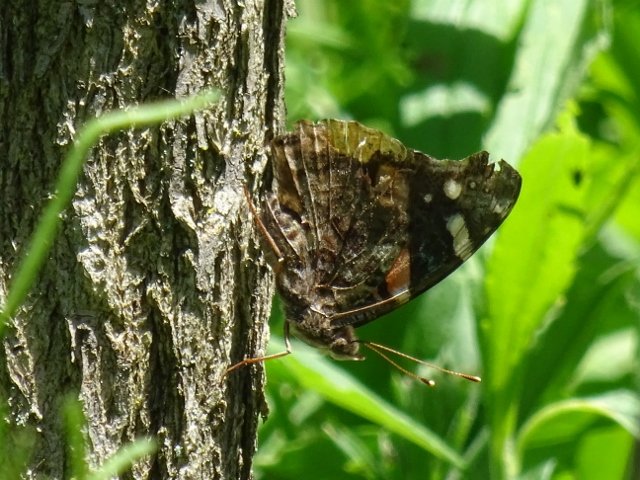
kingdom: Animalia
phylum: Arthropoda
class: Insecta
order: Lepidoptera
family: Nymphalidae
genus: Vanessa
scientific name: Vanessa atalanta
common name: Red Admiral
